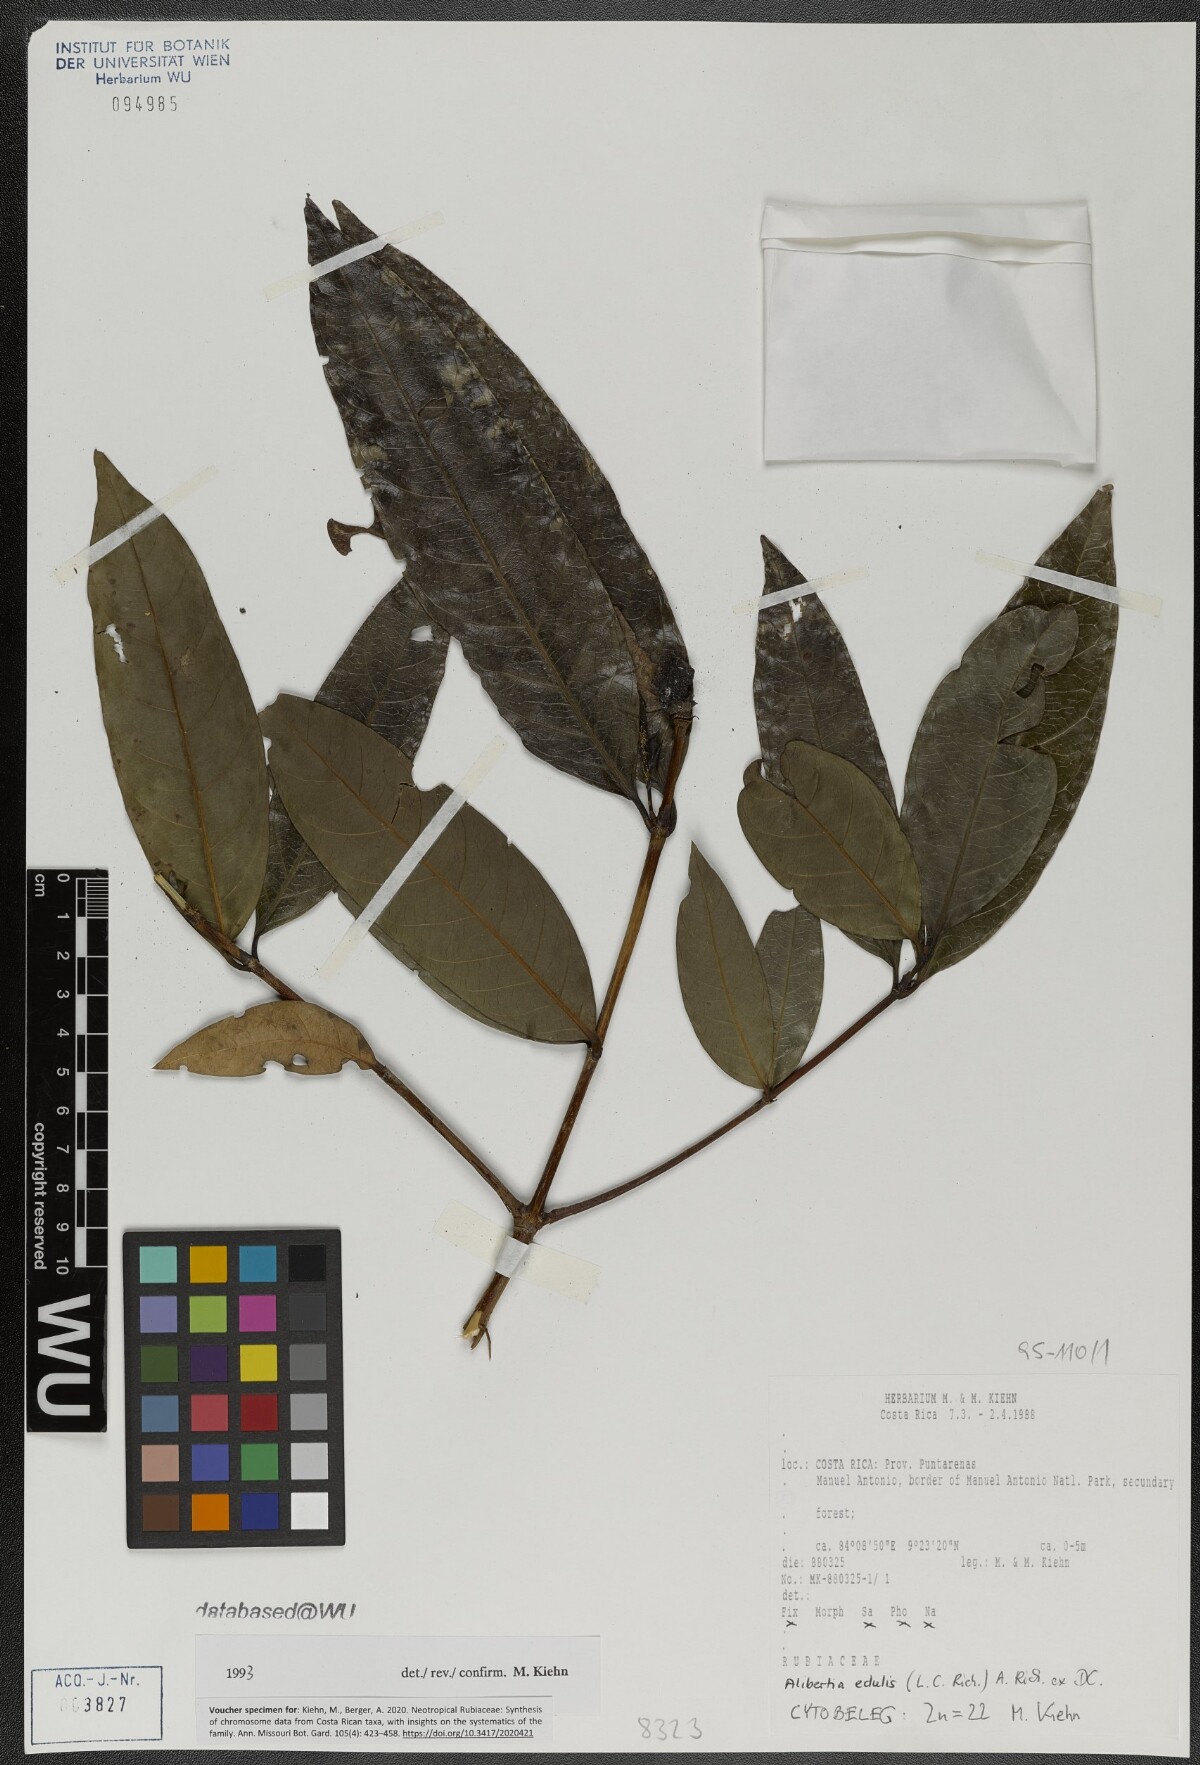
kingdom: Plantae
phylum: Tracheophyta
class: Magnoliopsida
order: Gentianales
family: Rubiaceae
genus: Alibertia
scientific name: Alibertia edulis
